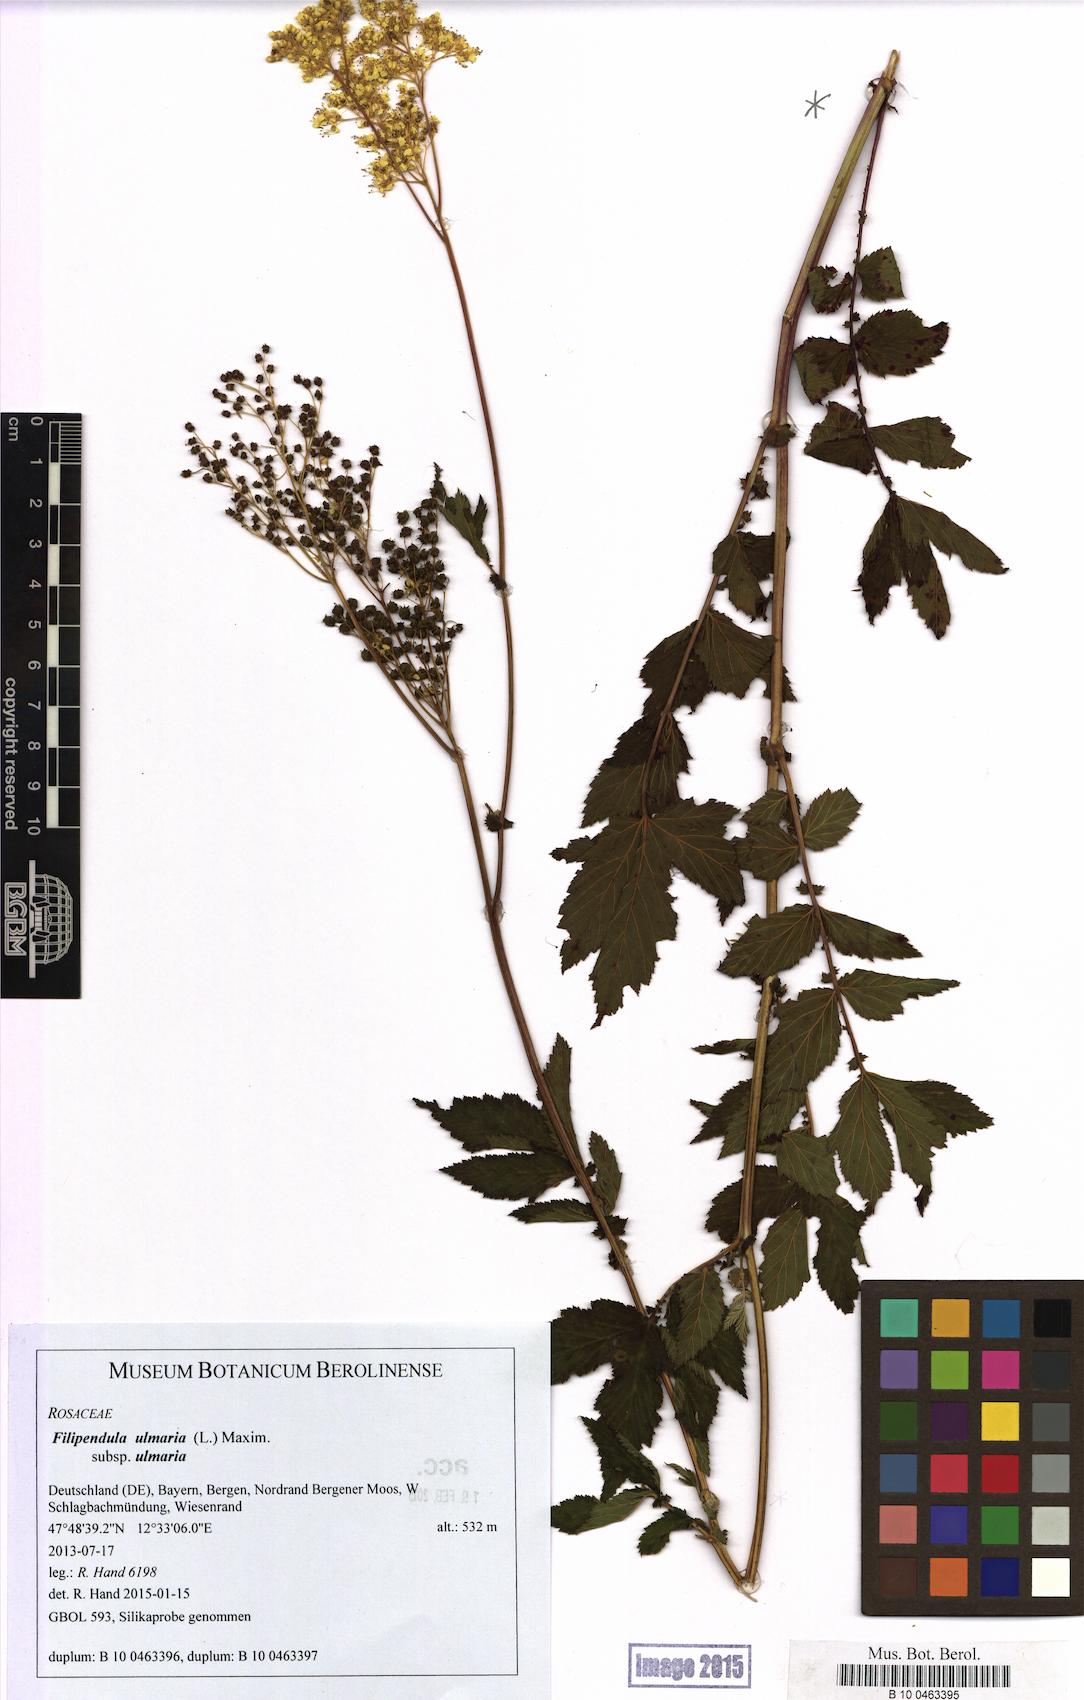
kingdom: Plantae
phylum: Tracheophyta
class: Magnoliopsida
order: Rosales
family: Rosaceae
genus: Filipendula
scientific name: Filipendula ulmaria
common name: Meadowsweet
